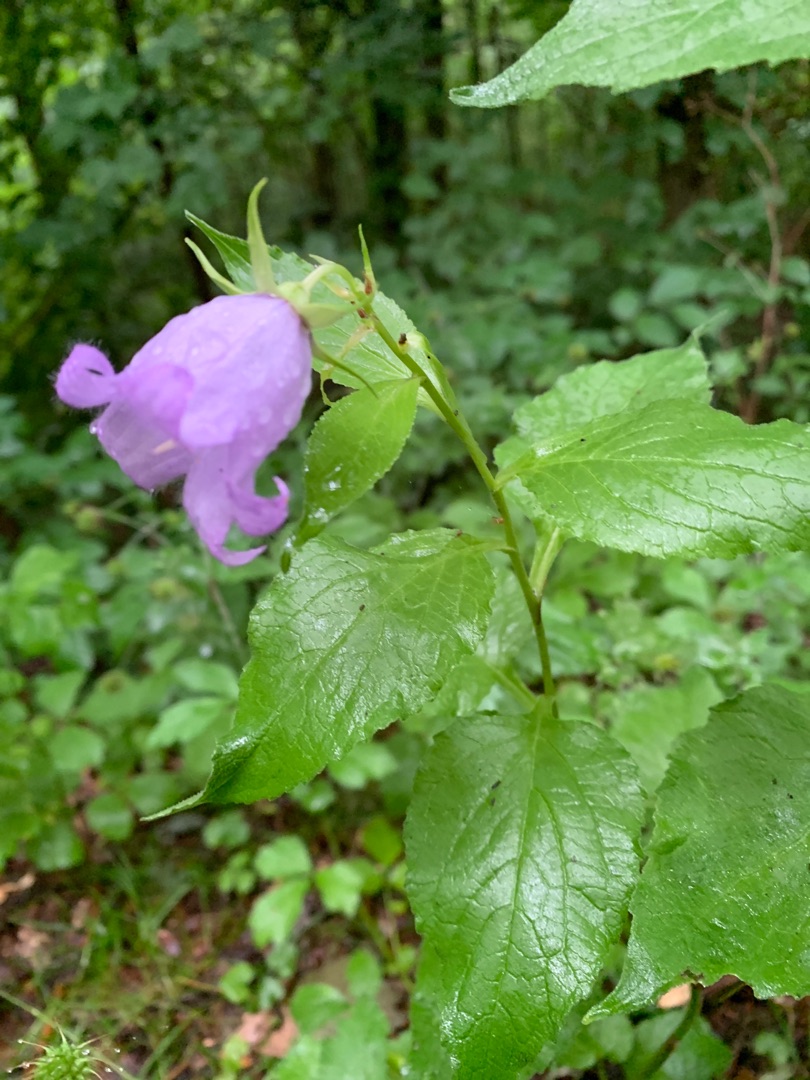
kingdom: Plantae
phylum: Tracheophyta
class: Magnoliopsida
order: Asterales
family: Campanulaceae
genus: Campanula
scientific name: Campanula latifolia
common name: Bredbladet klokke
